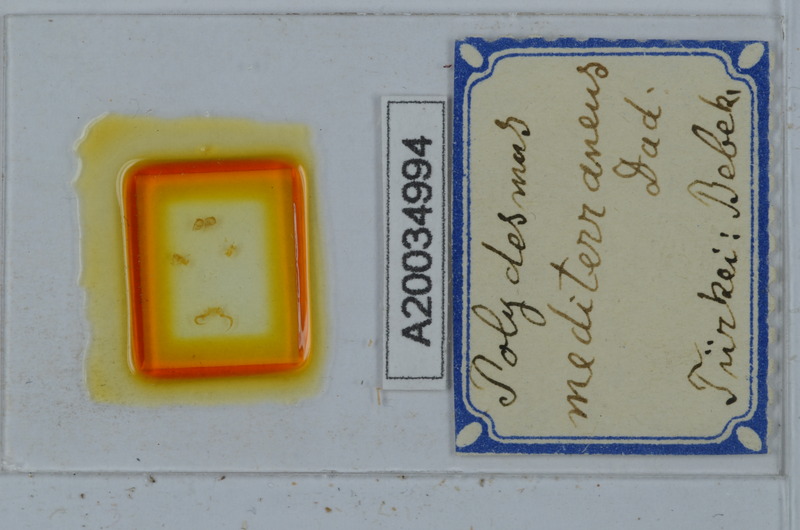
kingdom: Animalia
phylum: Arthropoda
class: Diplopoda
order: Polydesmida
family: Polydesmidae
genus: Polydesmus
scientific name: Polydesmus mediterraneus
